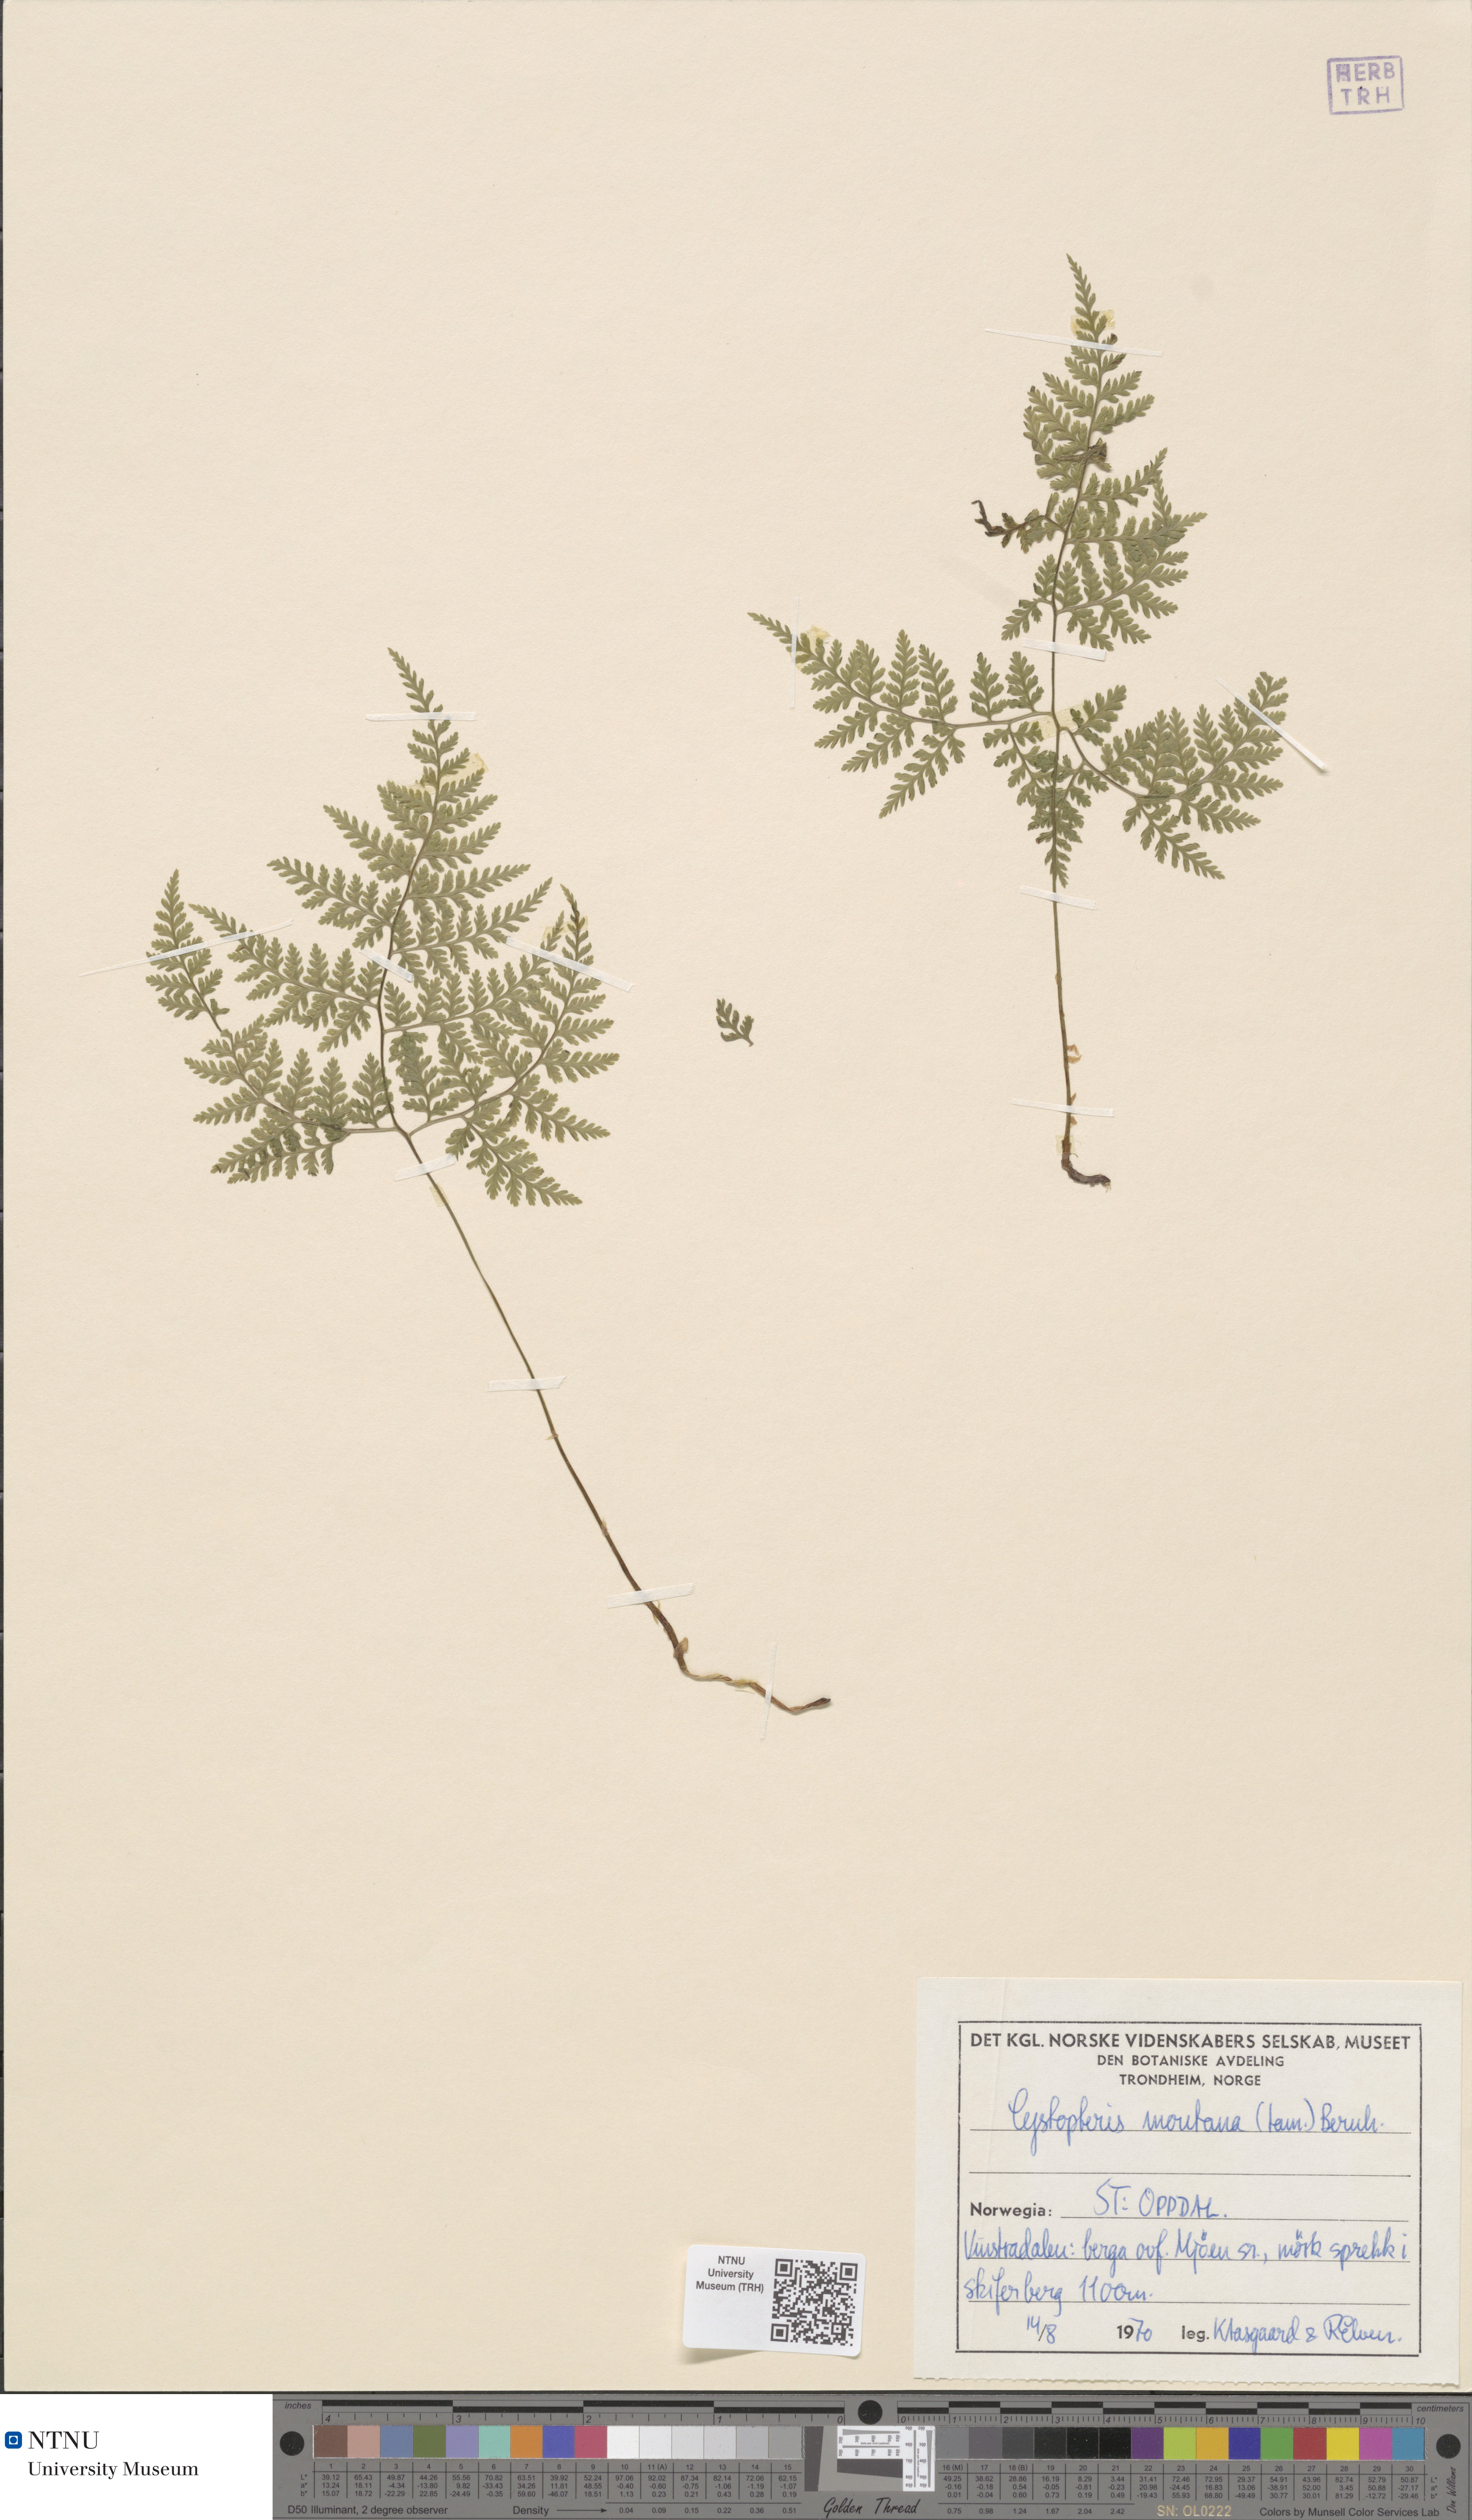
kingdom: Plantae
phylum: Tracheophyta
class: Polypodiopsida
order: Polypodiales
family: Cystopteridaceae
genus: Cystopteris
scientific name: Cystopteris montana
